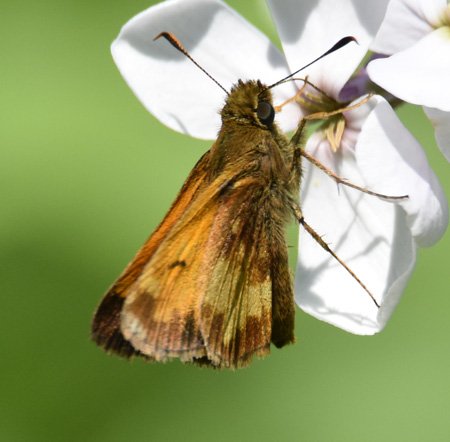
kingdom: Animalia
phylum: Arthropoda
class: Insecta
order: Lepidoptera
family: Hesperiidae
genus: Lon
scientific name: Lon hobomok
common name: Hobomok Skipper
